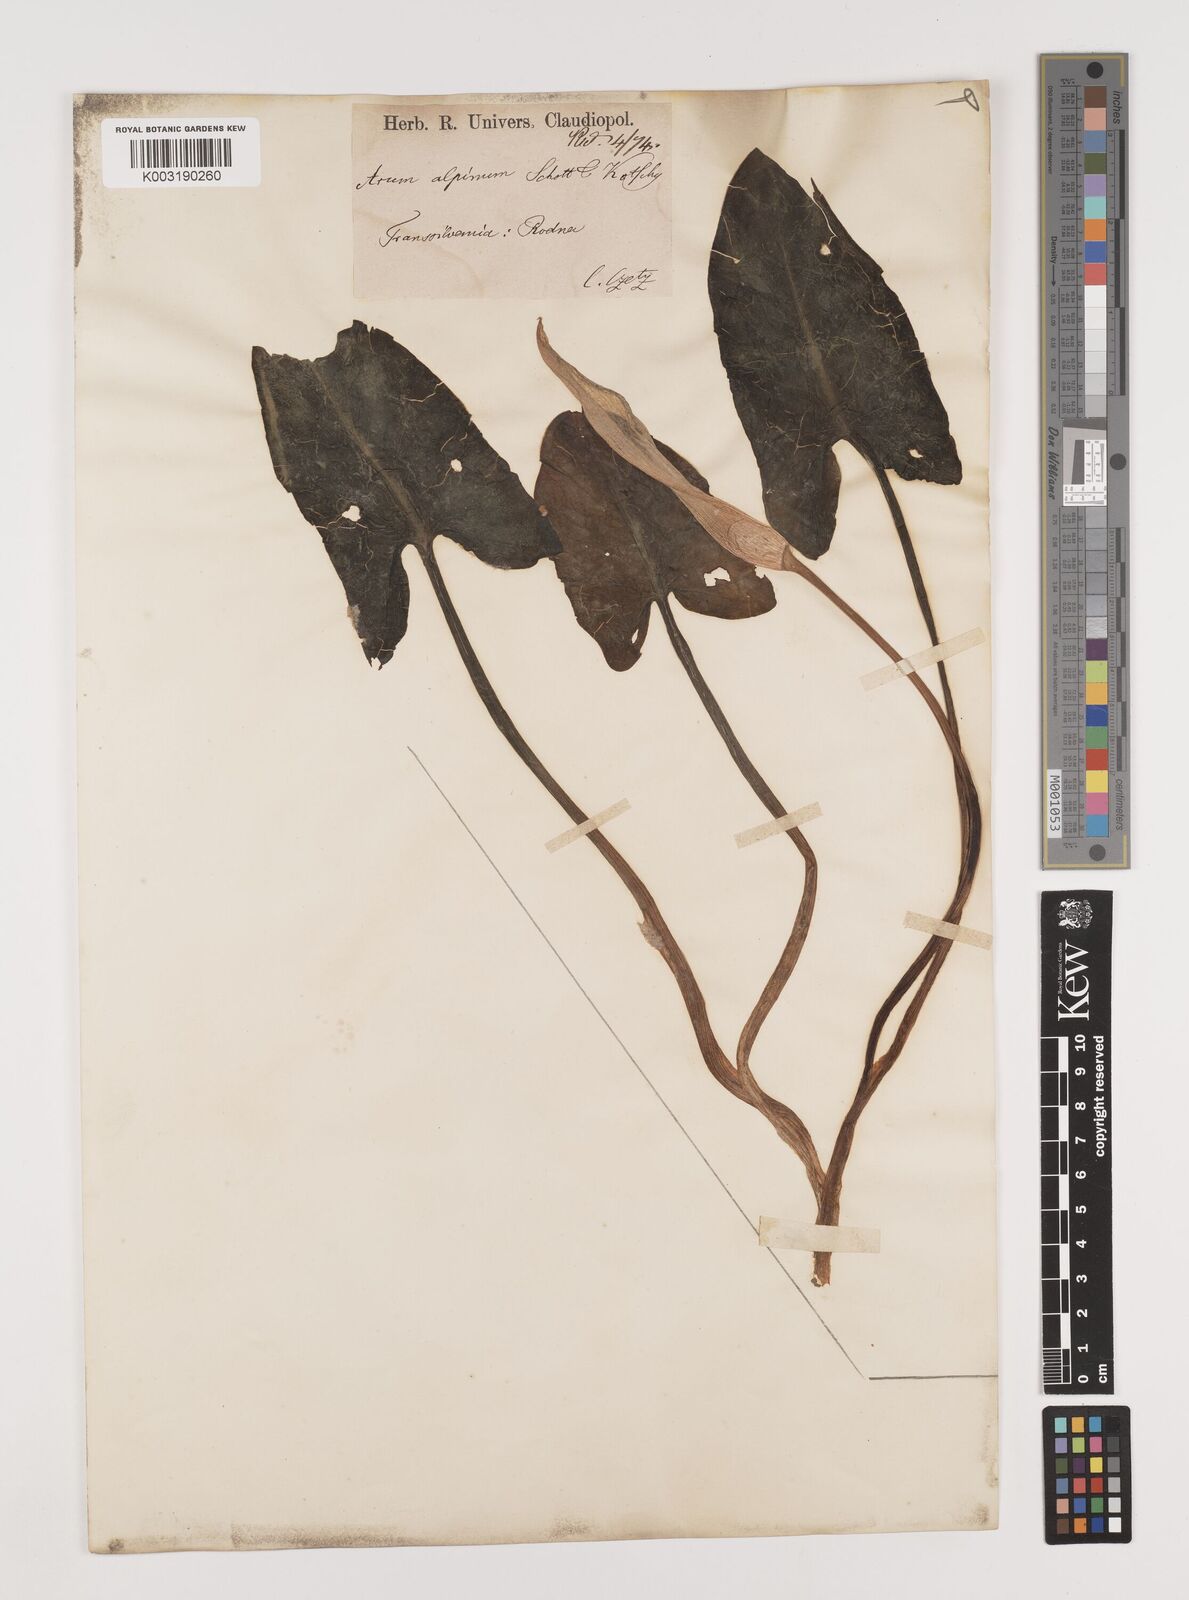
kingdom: Plantae
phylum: Tracheophyta
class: Liliopsida
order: Alismatales
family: Araceae
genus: Arum
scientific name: Arum cylindraceum
